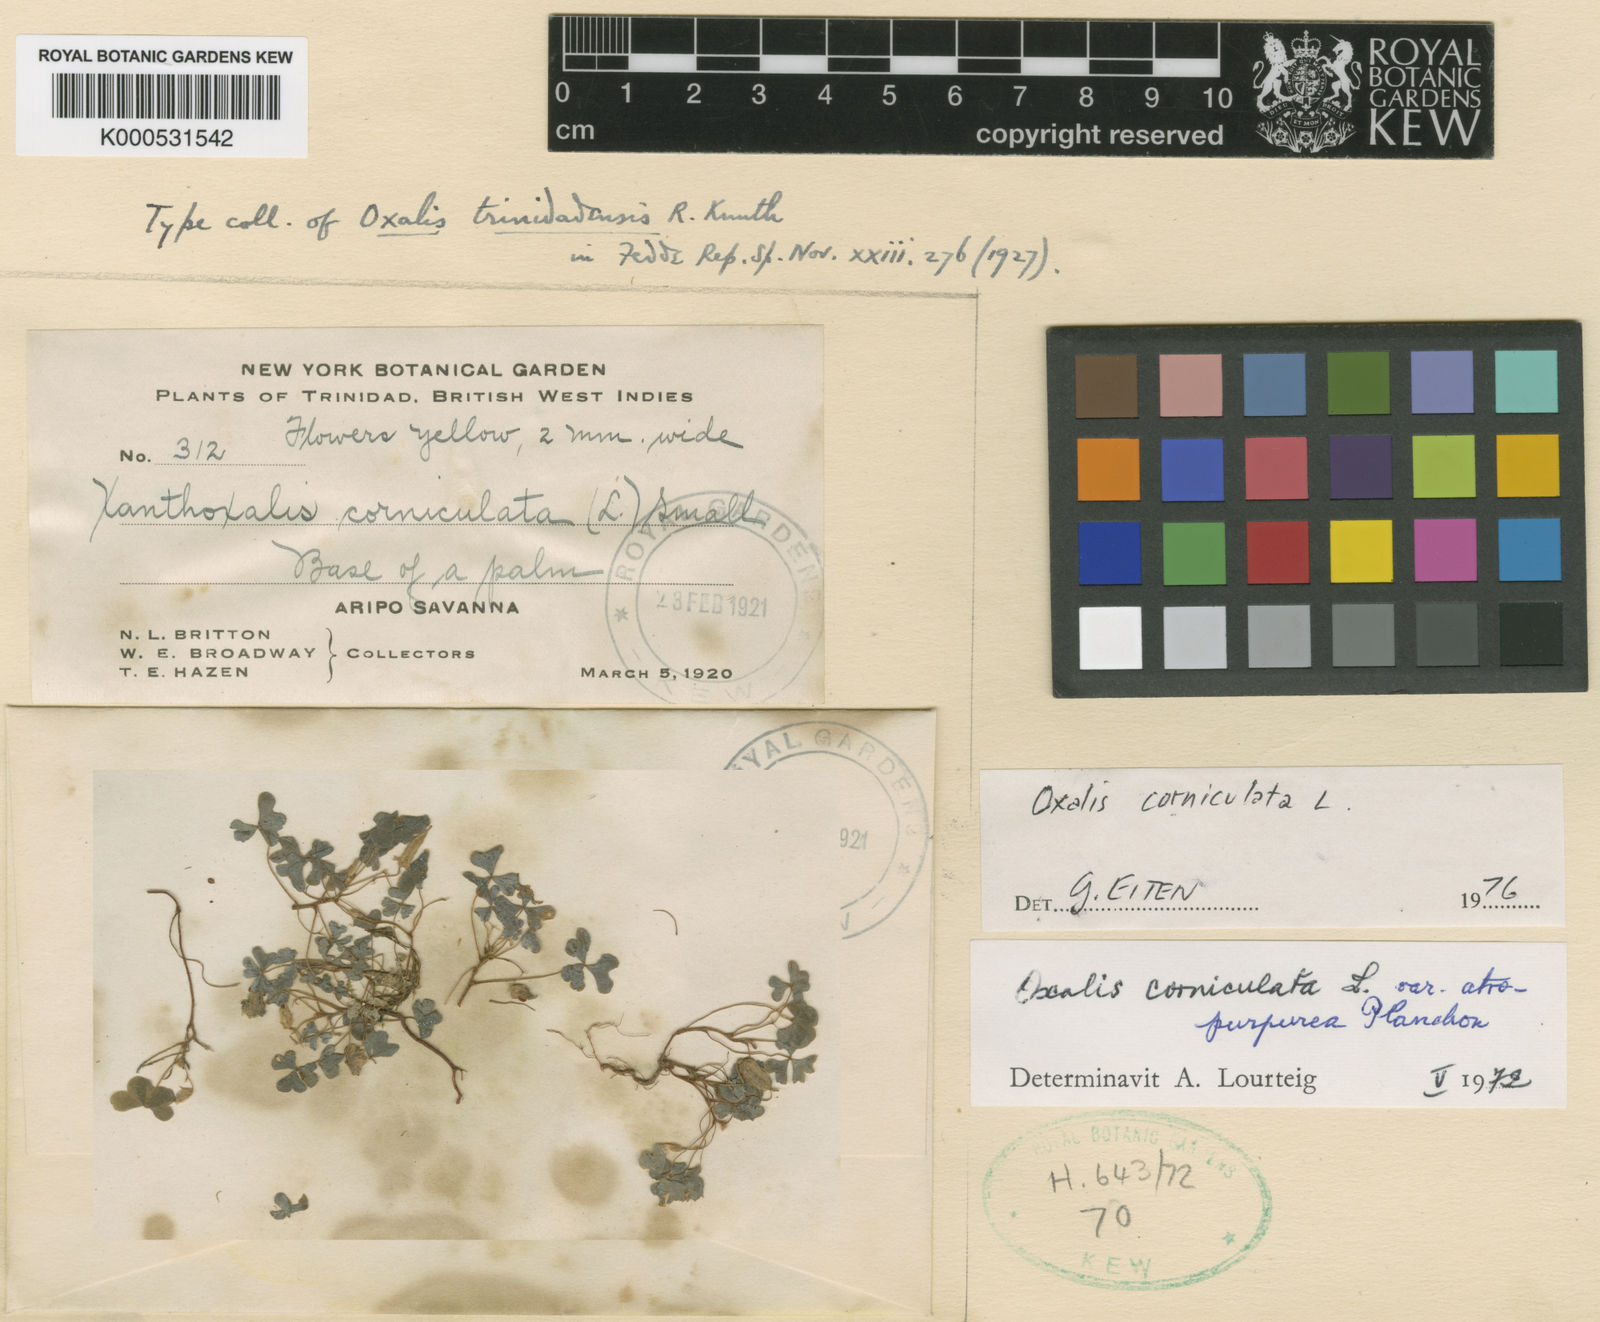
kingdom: Plantae
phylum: Tracheophyta
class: Magnoliopsida
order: Oxalidales
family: Oxalidaceae
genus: Oxalis
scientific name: Oxalis corniculata
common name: Procumbent yellow-sorrel
